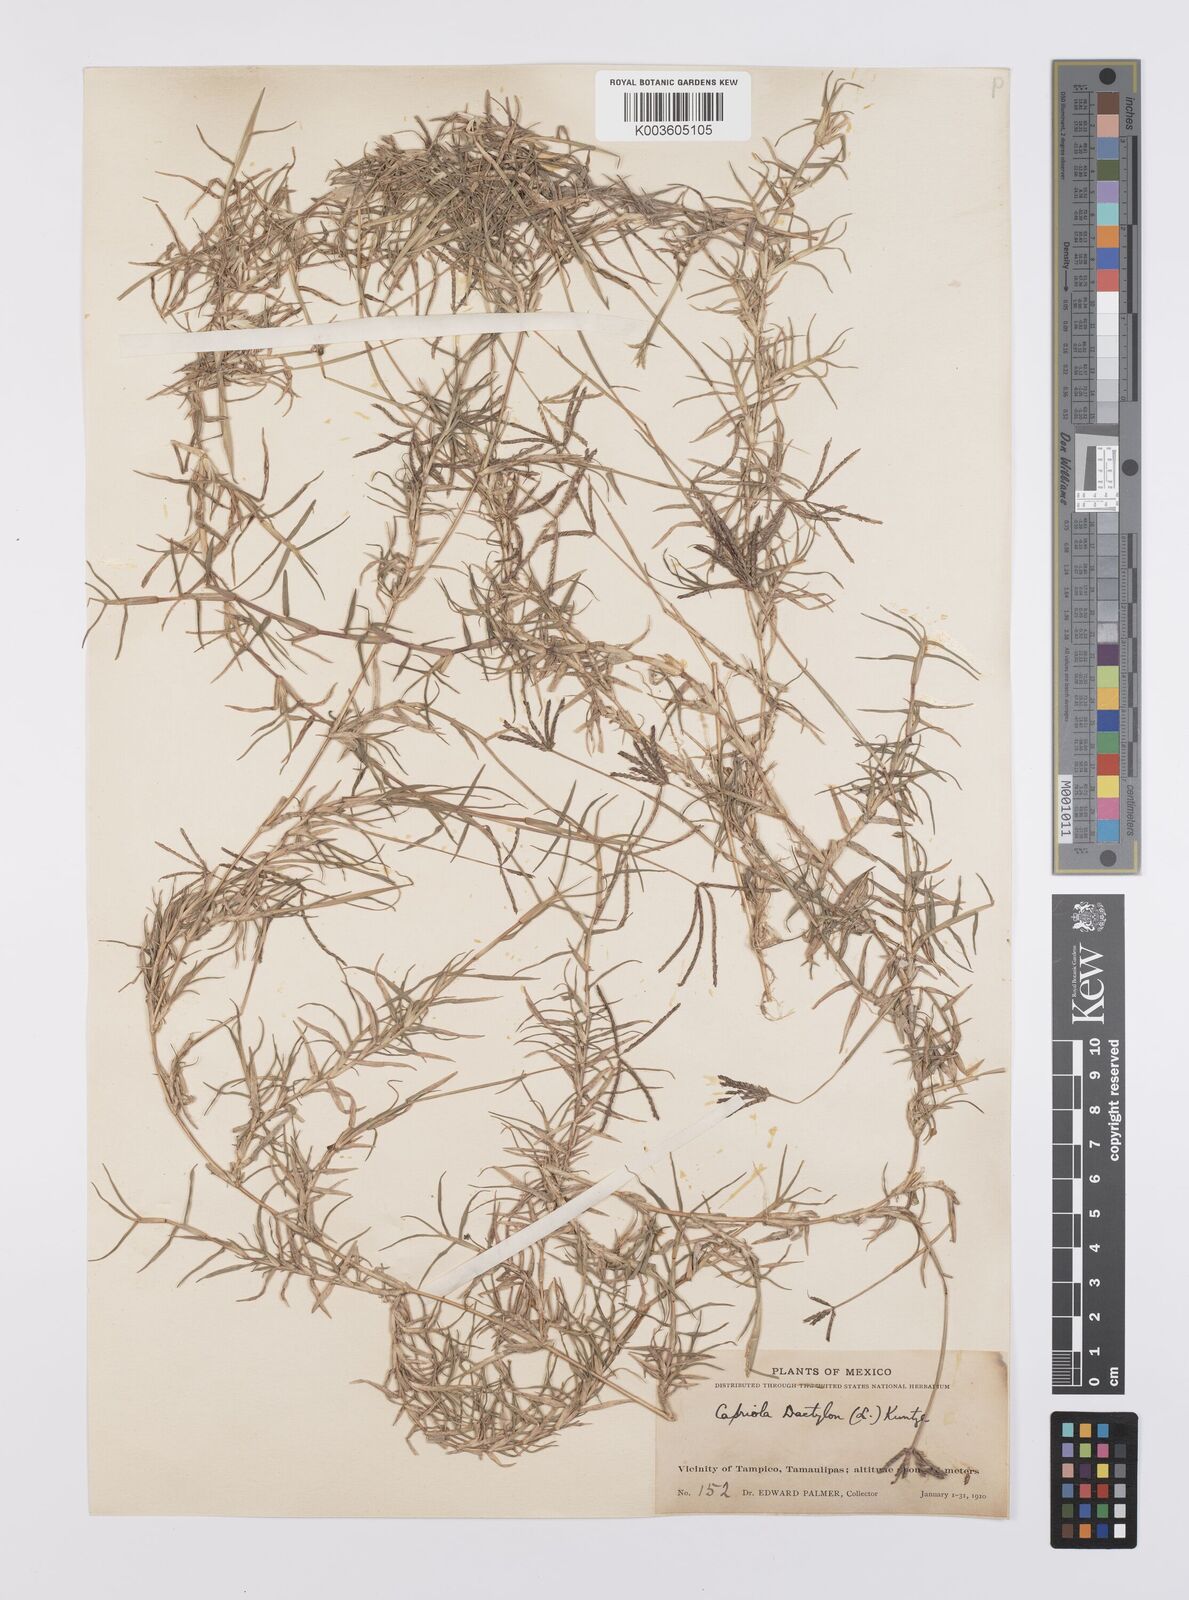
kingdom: Plantae
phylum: Tracheophyta
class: Liliopsida
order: Poales
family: Poaceae
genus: Cynodon
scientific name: Cynodon dactylon
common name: Bermuda grass
